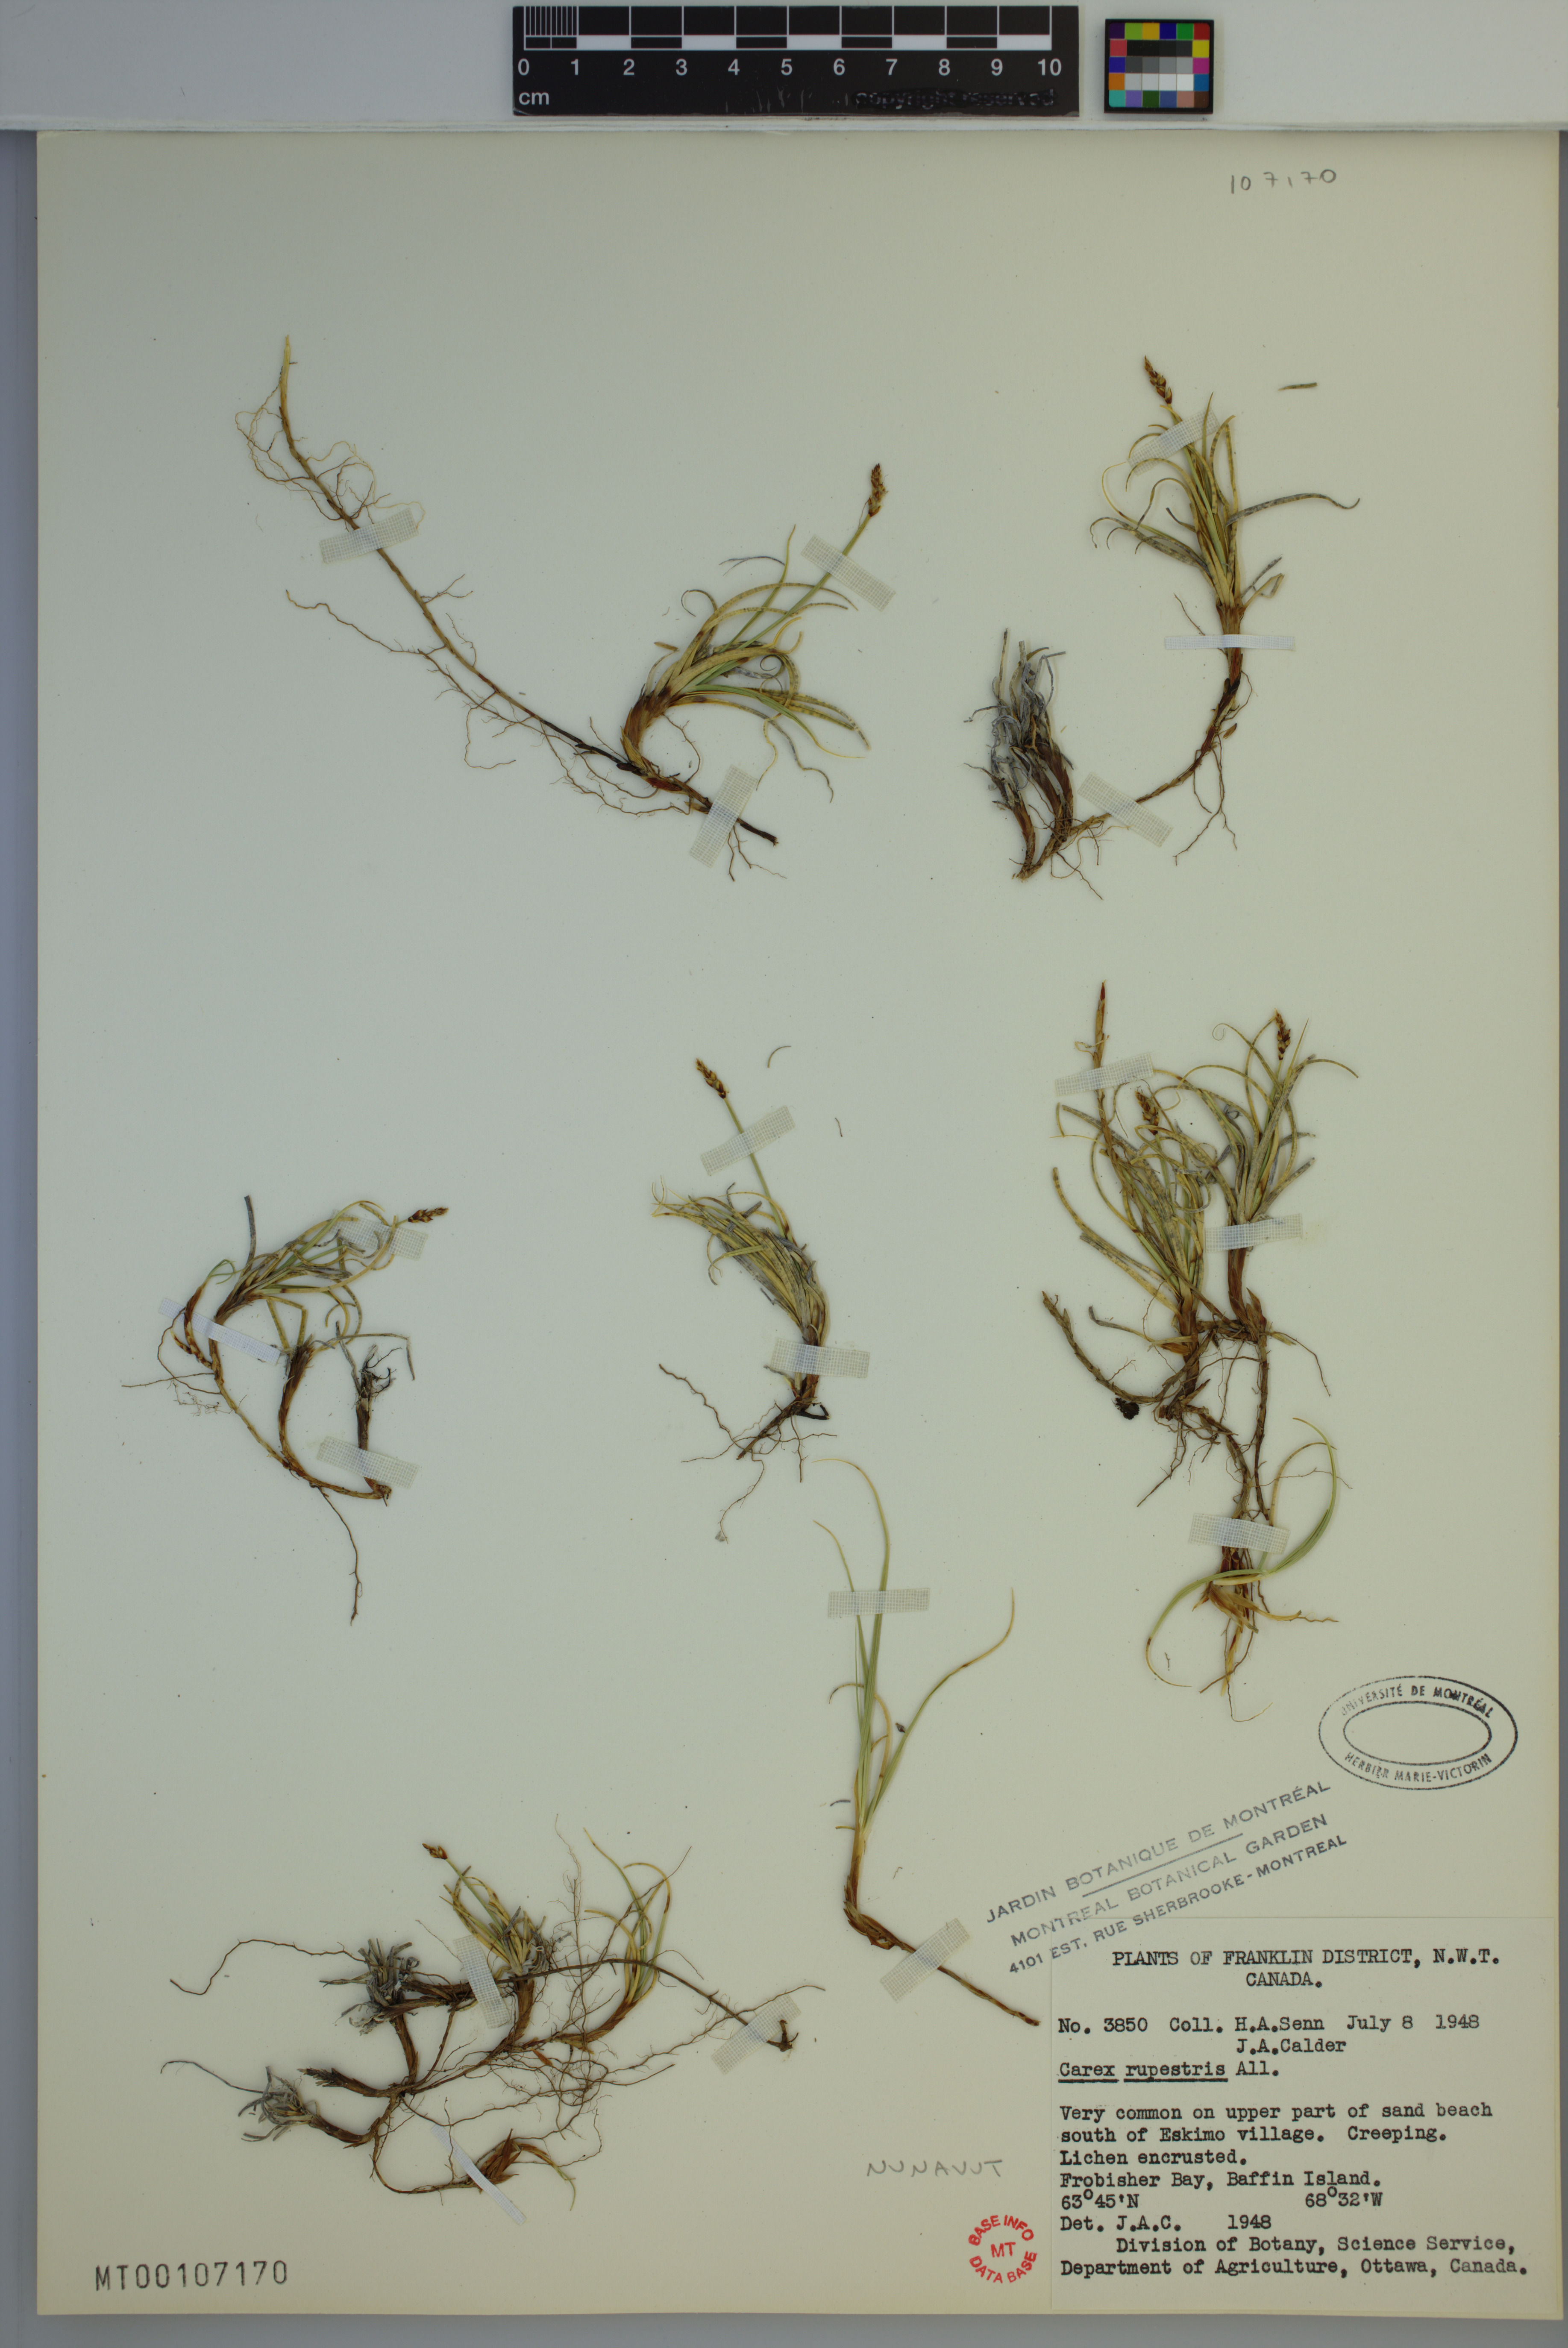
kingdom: Plantae
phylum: Tracheophyta
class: Liliopsida
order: Poales
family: Cyperaceae
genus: Carex
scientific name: Carex rupestris
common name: Rock sedge
